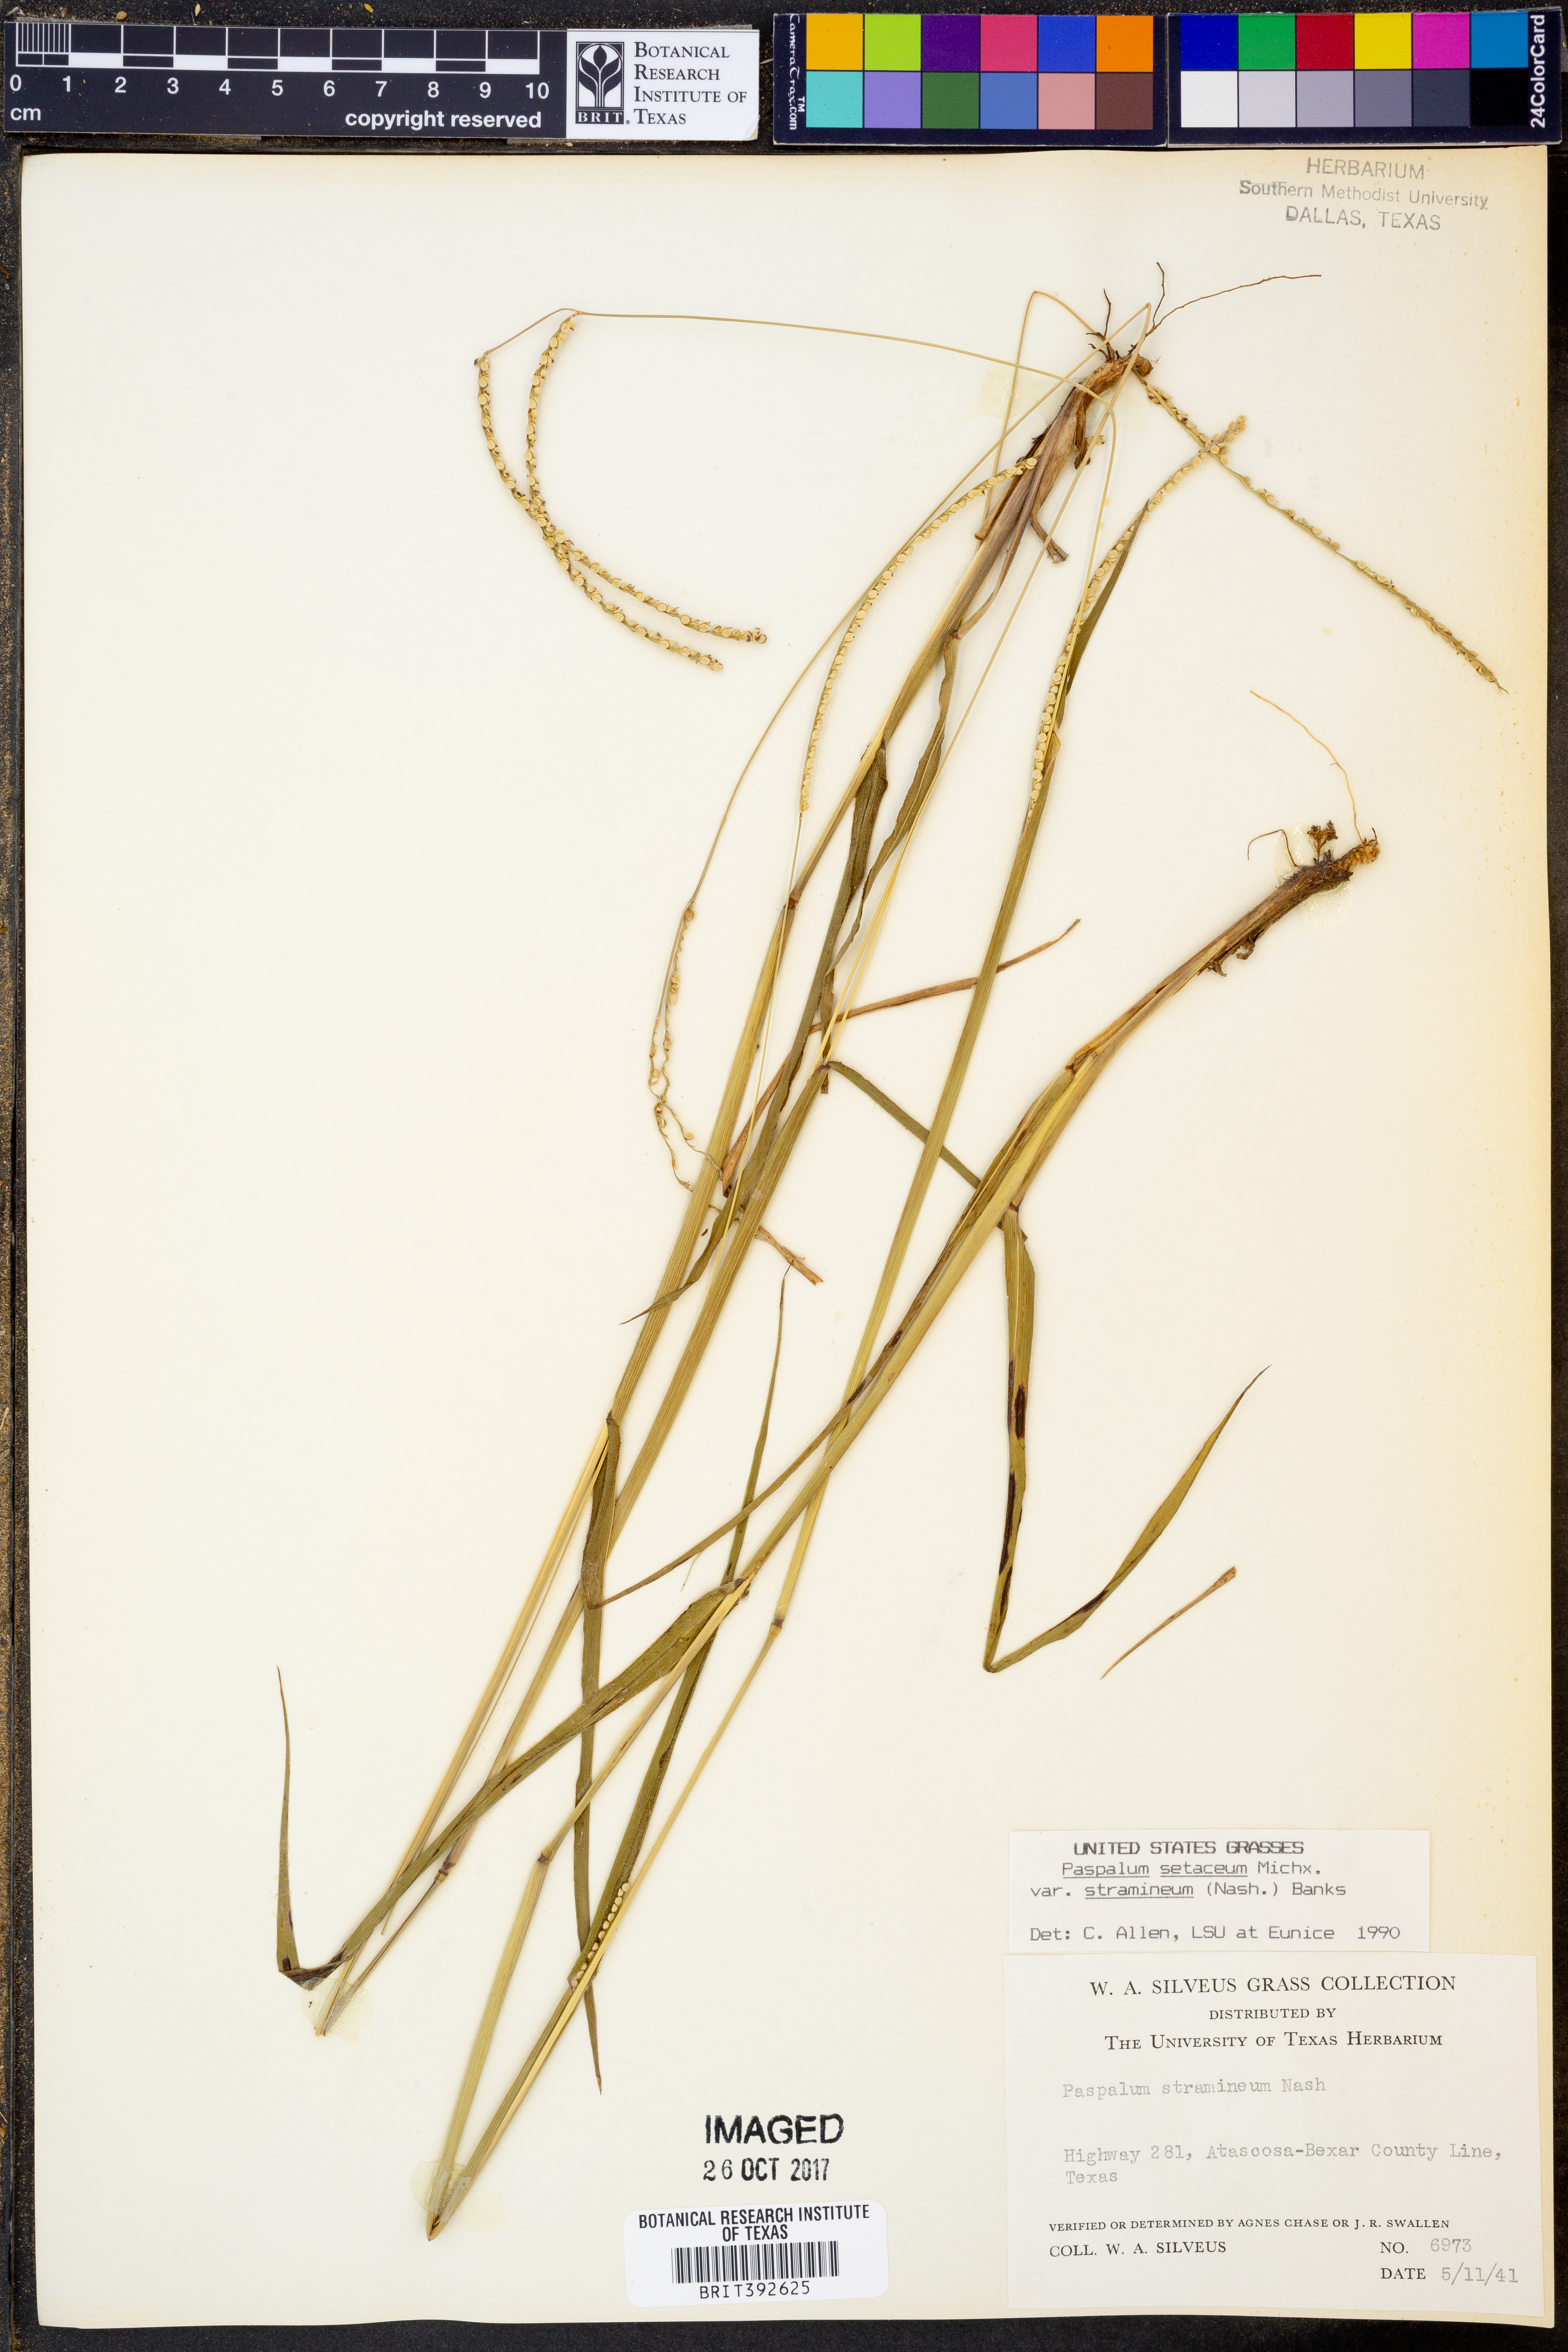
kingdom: Plantae
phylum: Tracheophyta
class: Liliopsida
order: Poales
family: Poaceae
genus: Paspalum
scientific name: Paspalum setaceum
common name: Slender paspalum
